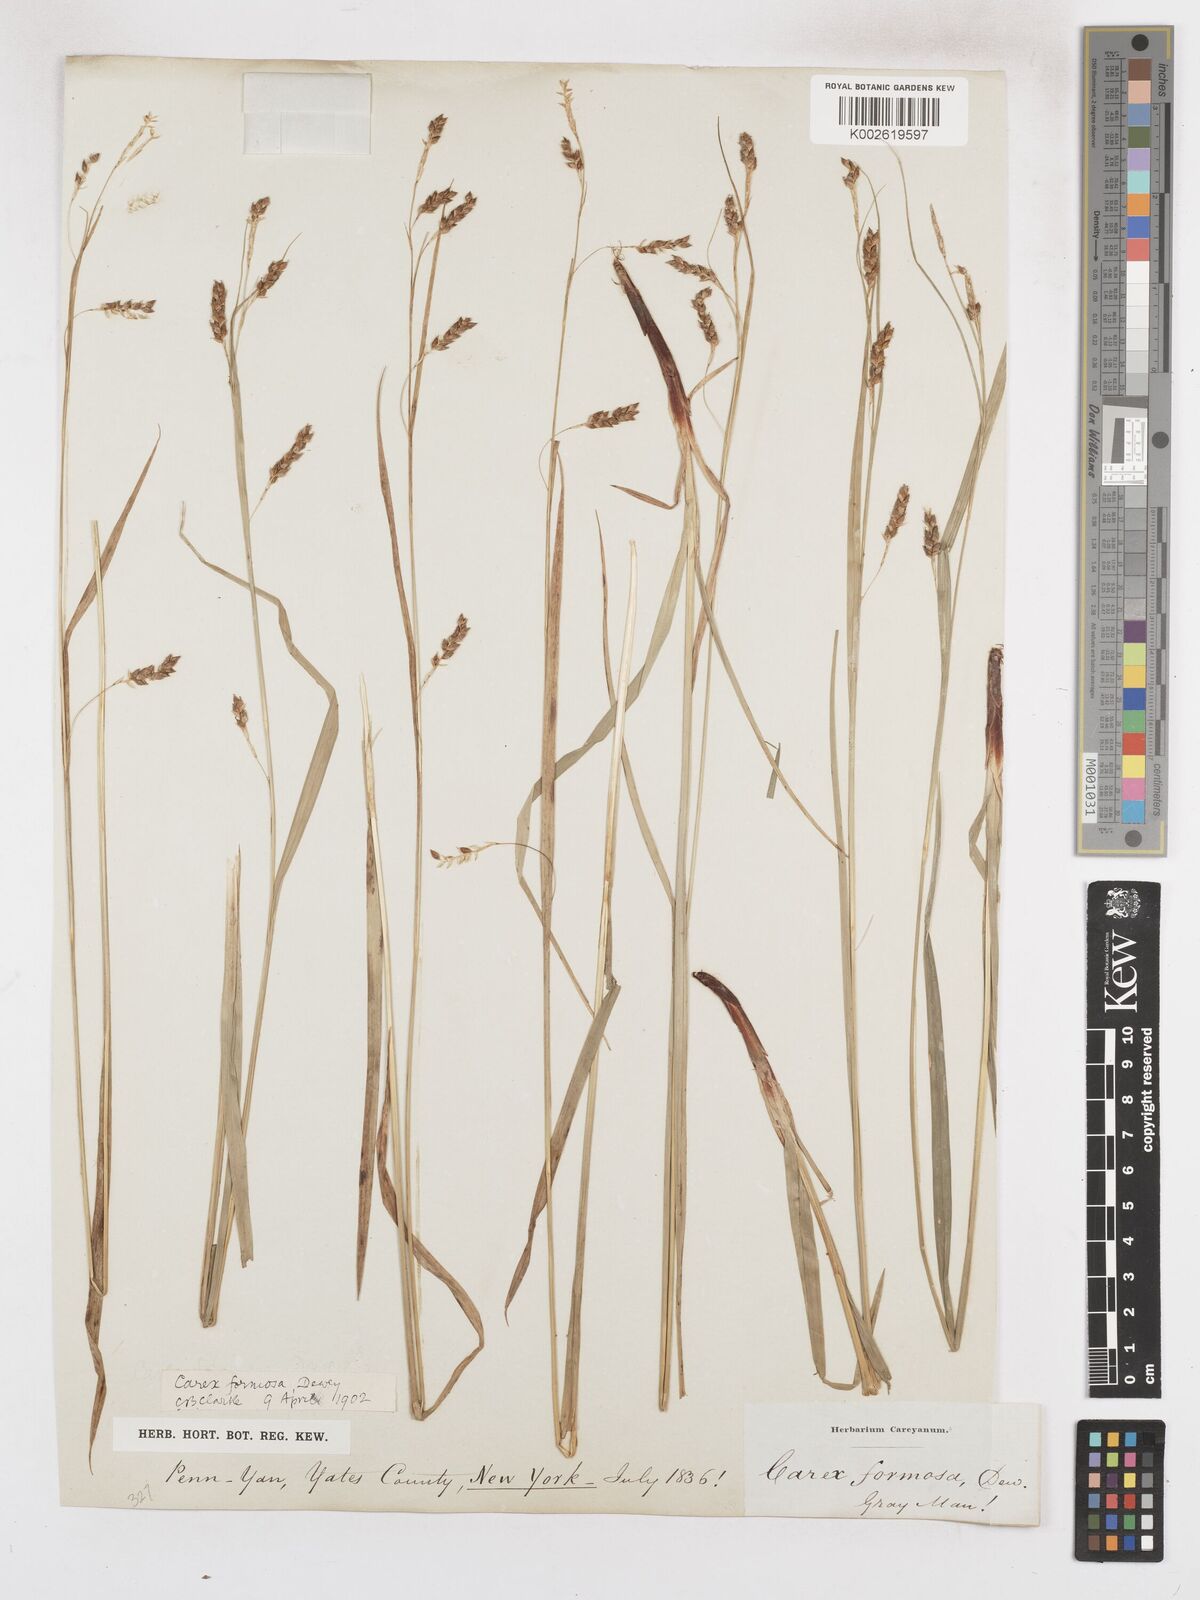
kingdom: Plantae
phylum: Tracheophyta
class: Liliopsida
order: Poales
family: Cyperaceae
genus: Carex
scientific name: Carex formosa
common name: Awnless graceful sedge
